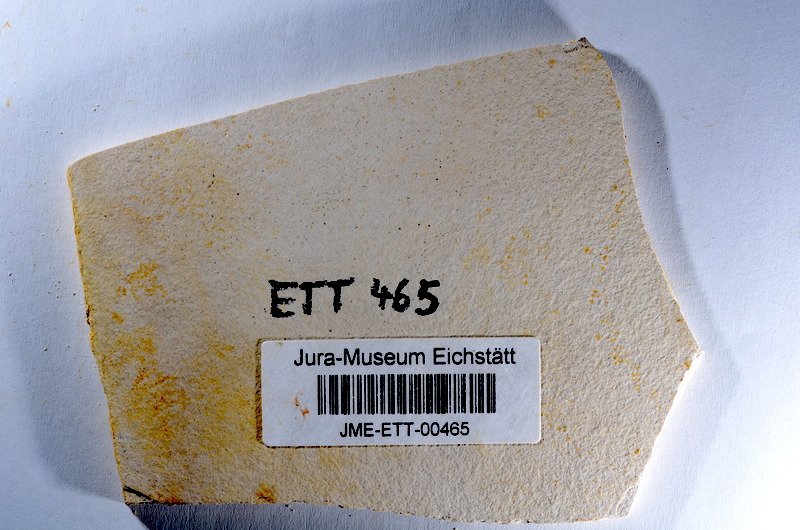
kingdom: Animalia
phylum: Chordata
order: Salmoniformes
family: Orthogonikleithridae
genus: Orthogonikleithrus
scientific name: Orthogonikleithrus hoelli
